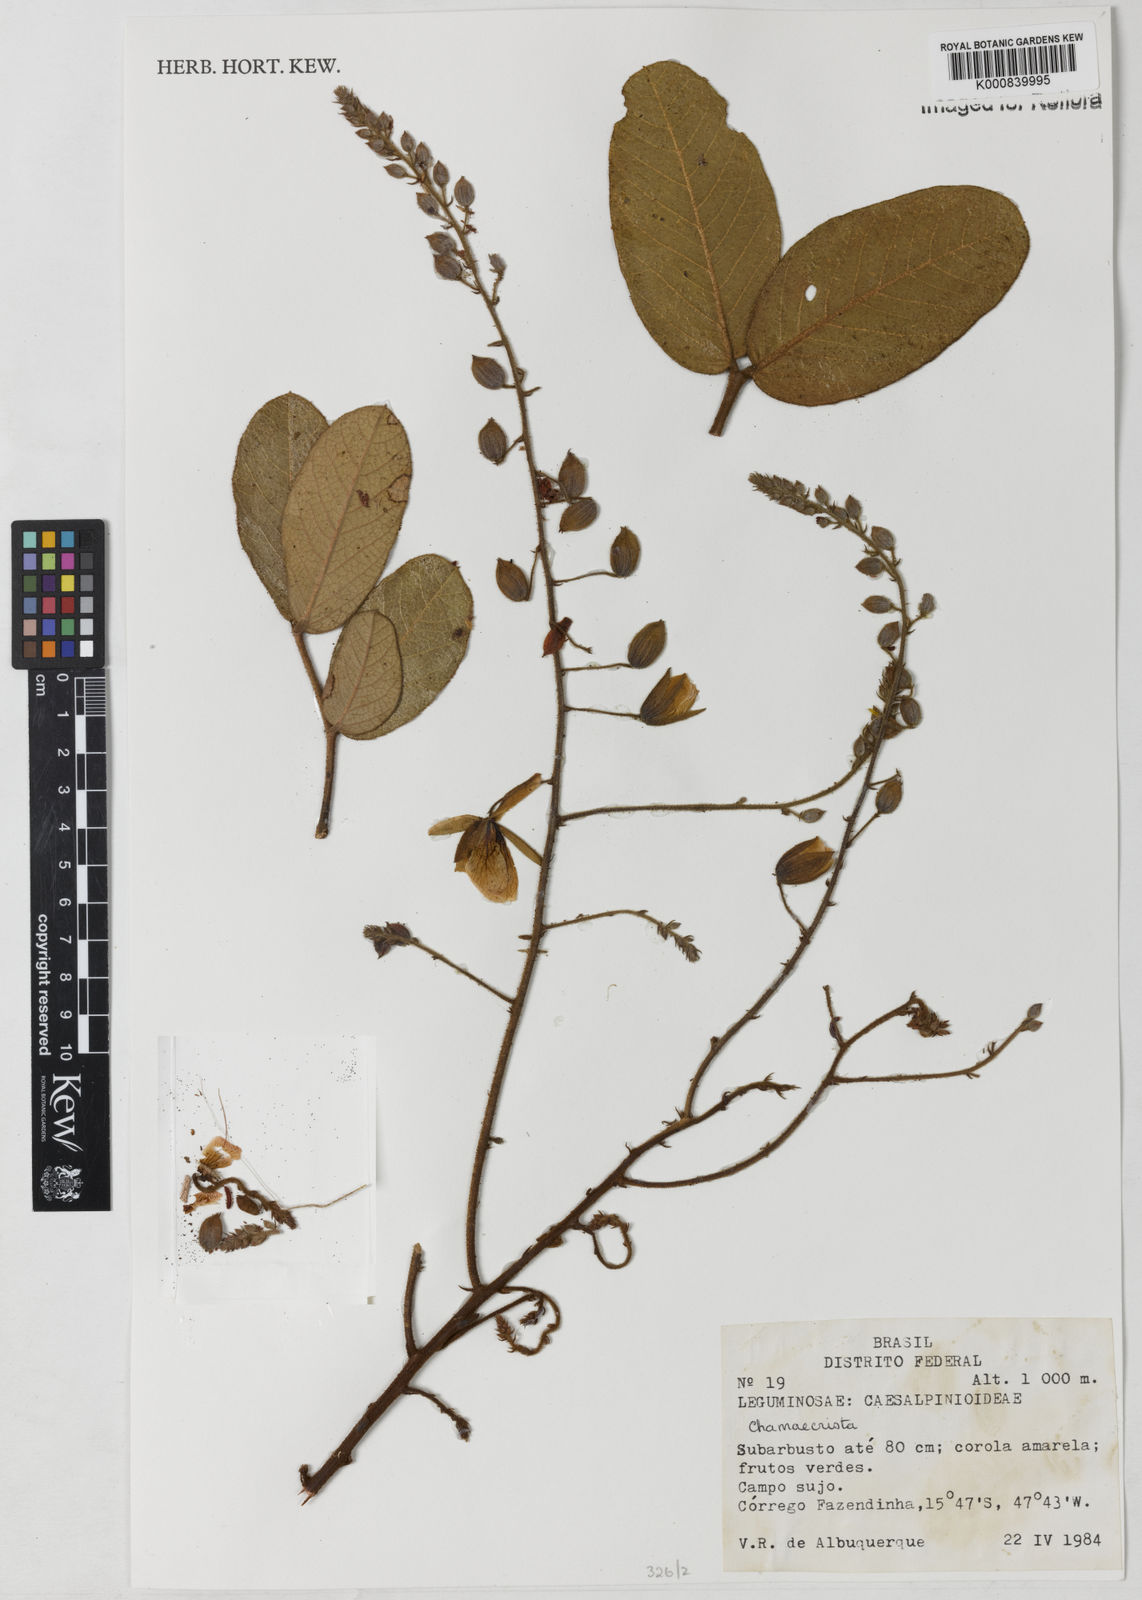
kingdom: Plantae
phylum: Tracheophyta
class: Magnoliopsida
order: Fabales
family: Fabaceae
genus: Chamaecrista
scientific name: Chamaecrista setosa
